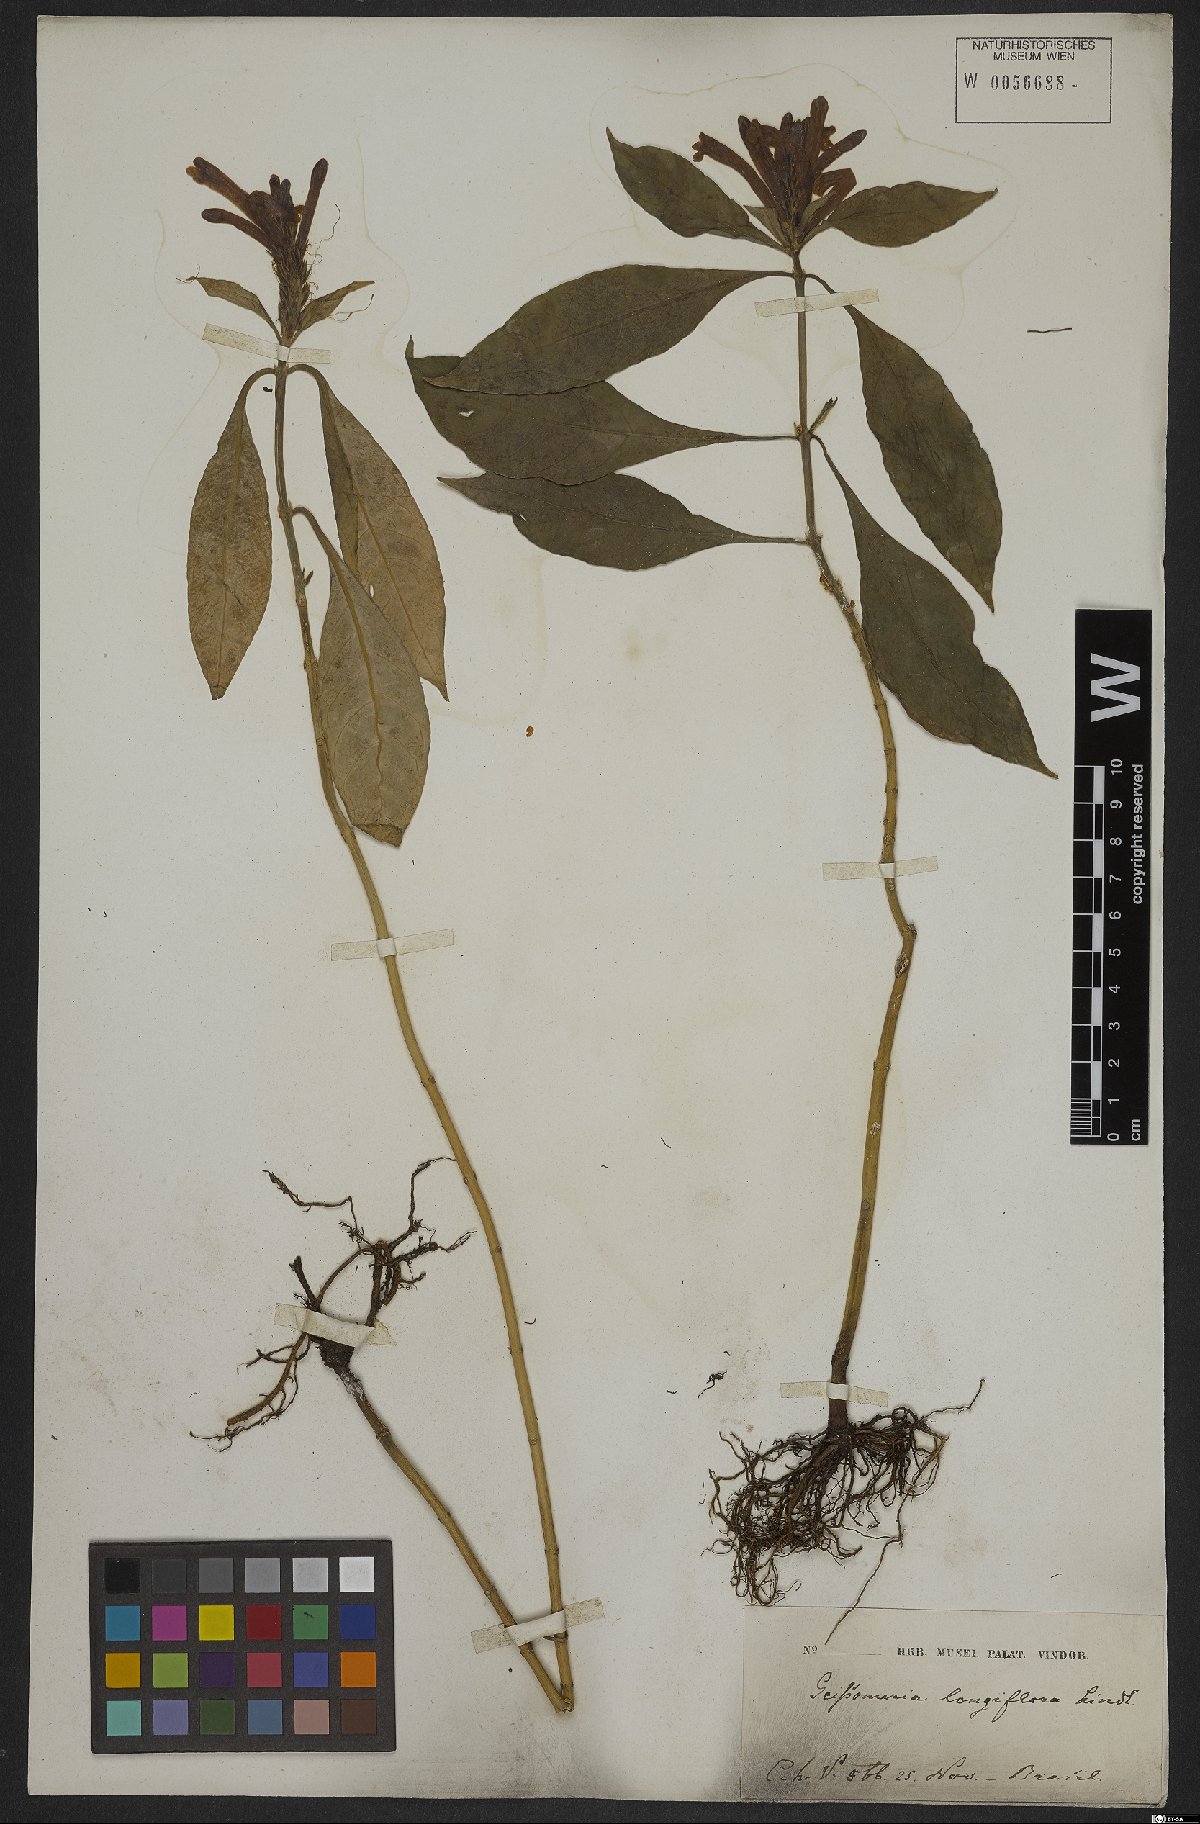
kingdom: Plantae
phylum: Tracheophyta
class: Magnoliopsida
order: Lamiales
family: Acanthaceae
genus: Aphelandra
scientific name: Aphelandra longiflora
